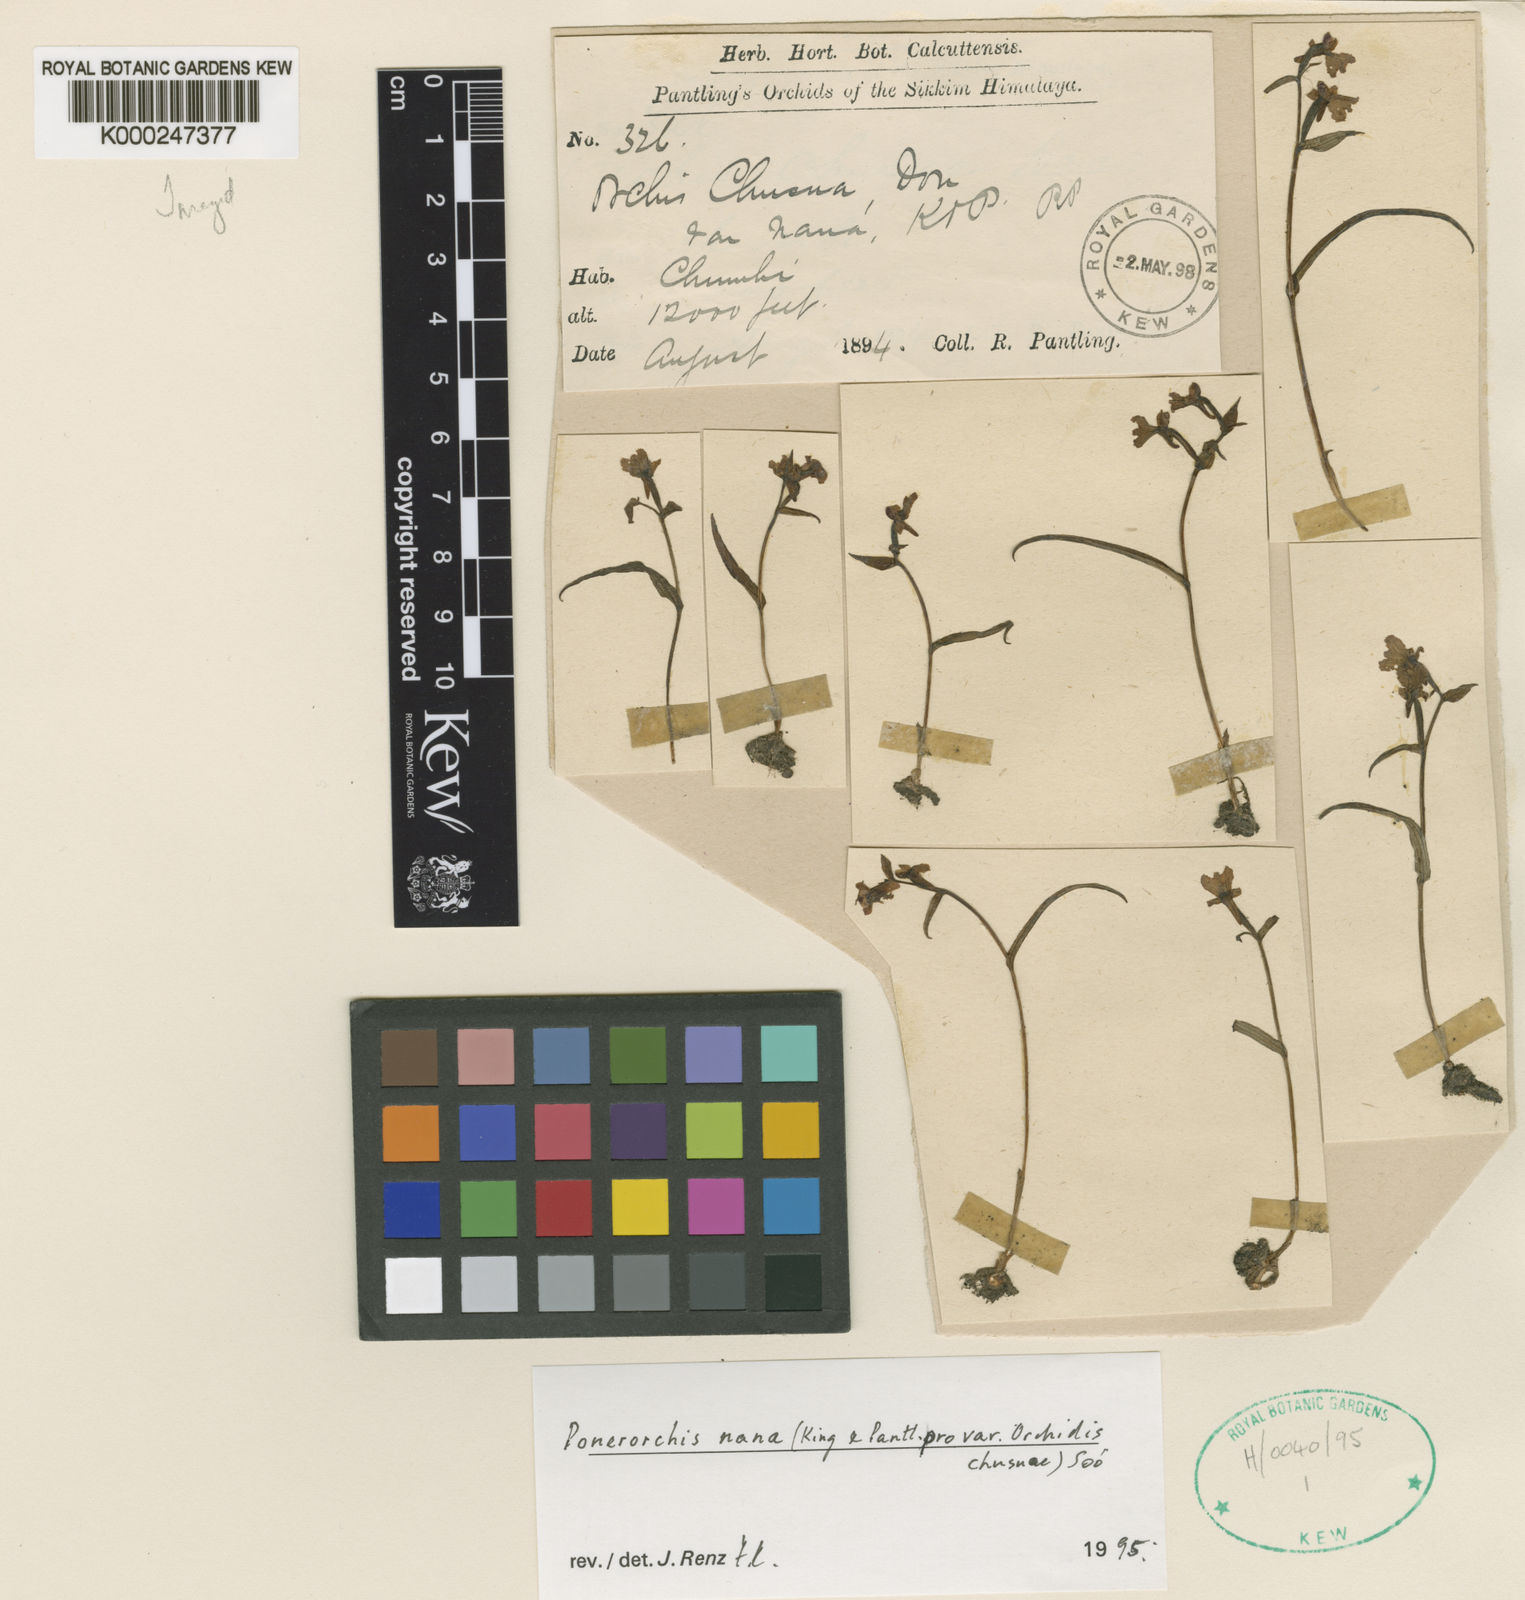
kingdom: Plantae
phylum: Tracheophyta
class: Liliopsida
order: Asparagales
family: Orchidaceae
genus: Hemipilia
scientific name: Hemipilia
